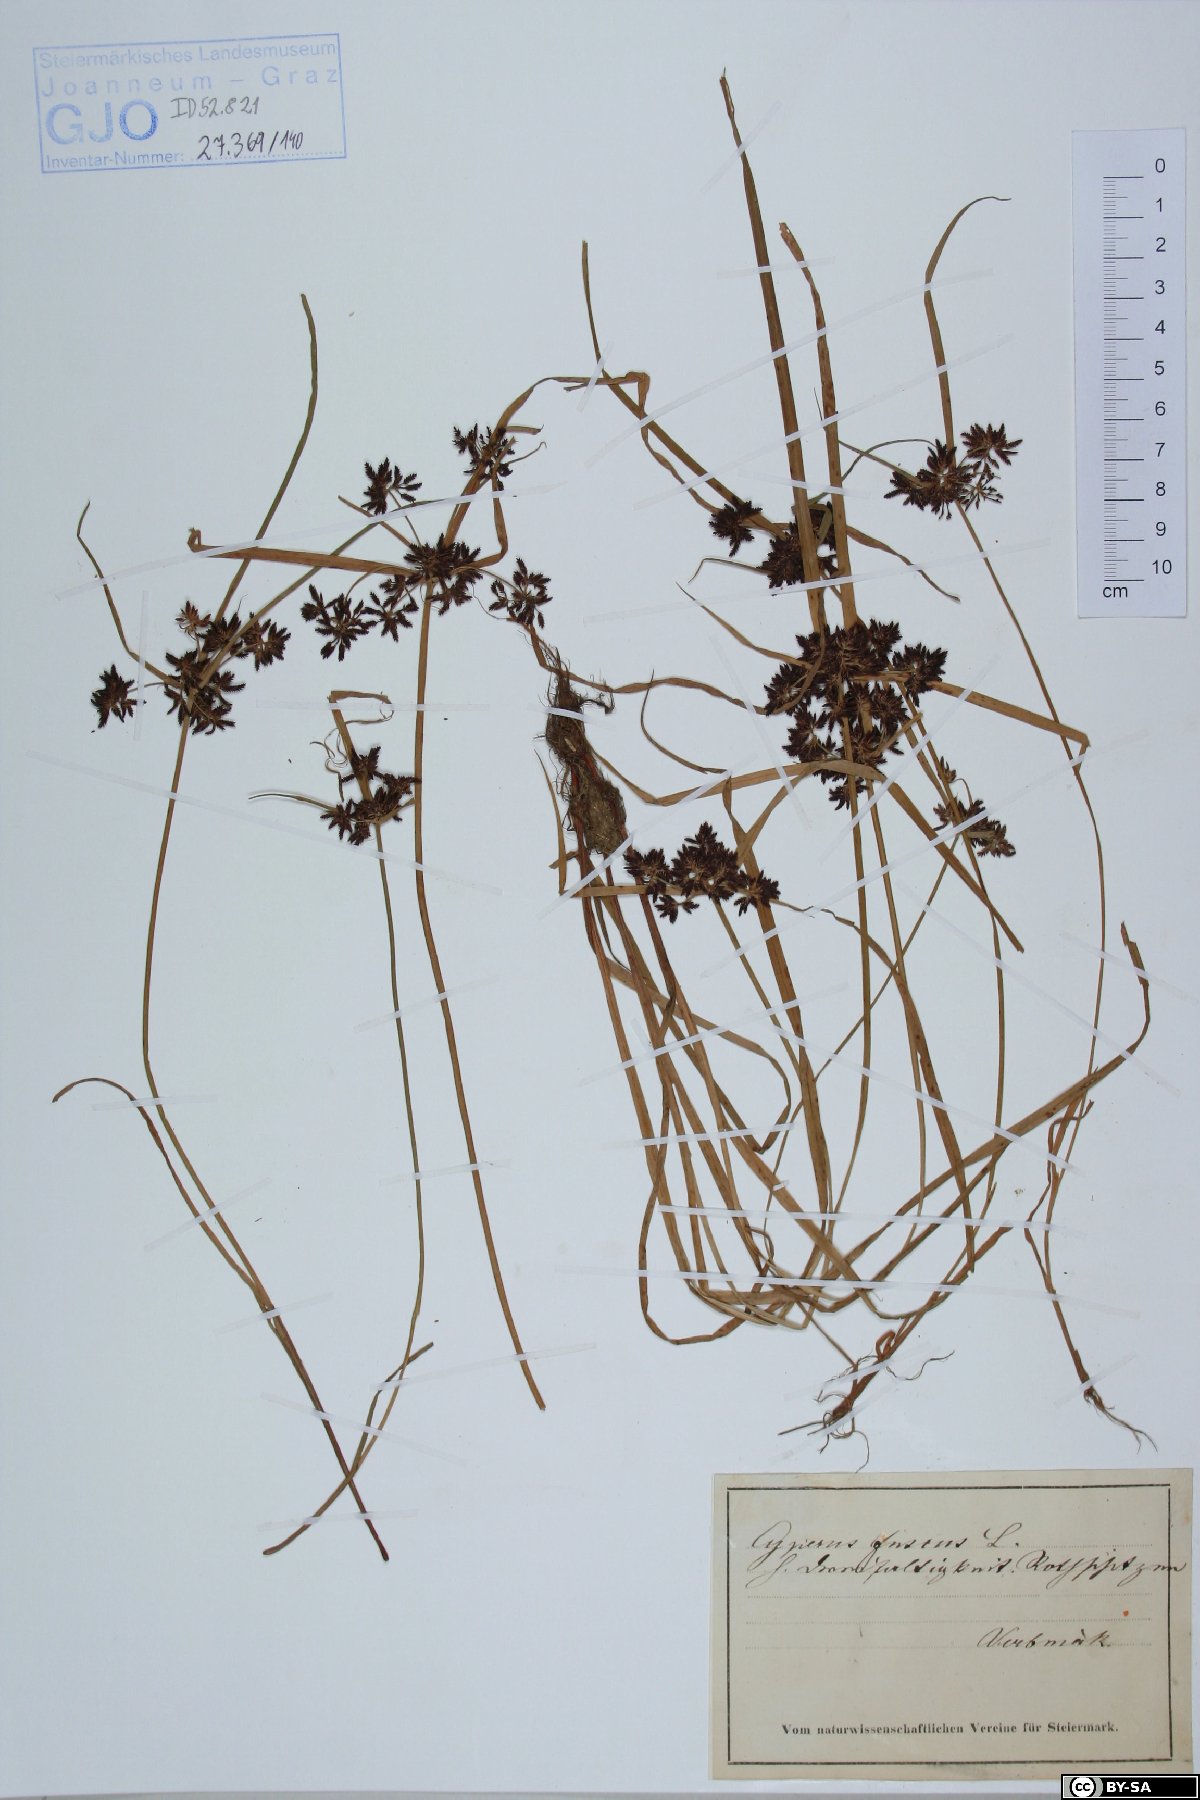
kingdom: Plantae
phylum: Tracheophyta
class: Liliopsida
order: Poales
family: Cyperaceae
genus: Cyperus
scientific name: Cyperus fuscus
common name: Brown galingale
